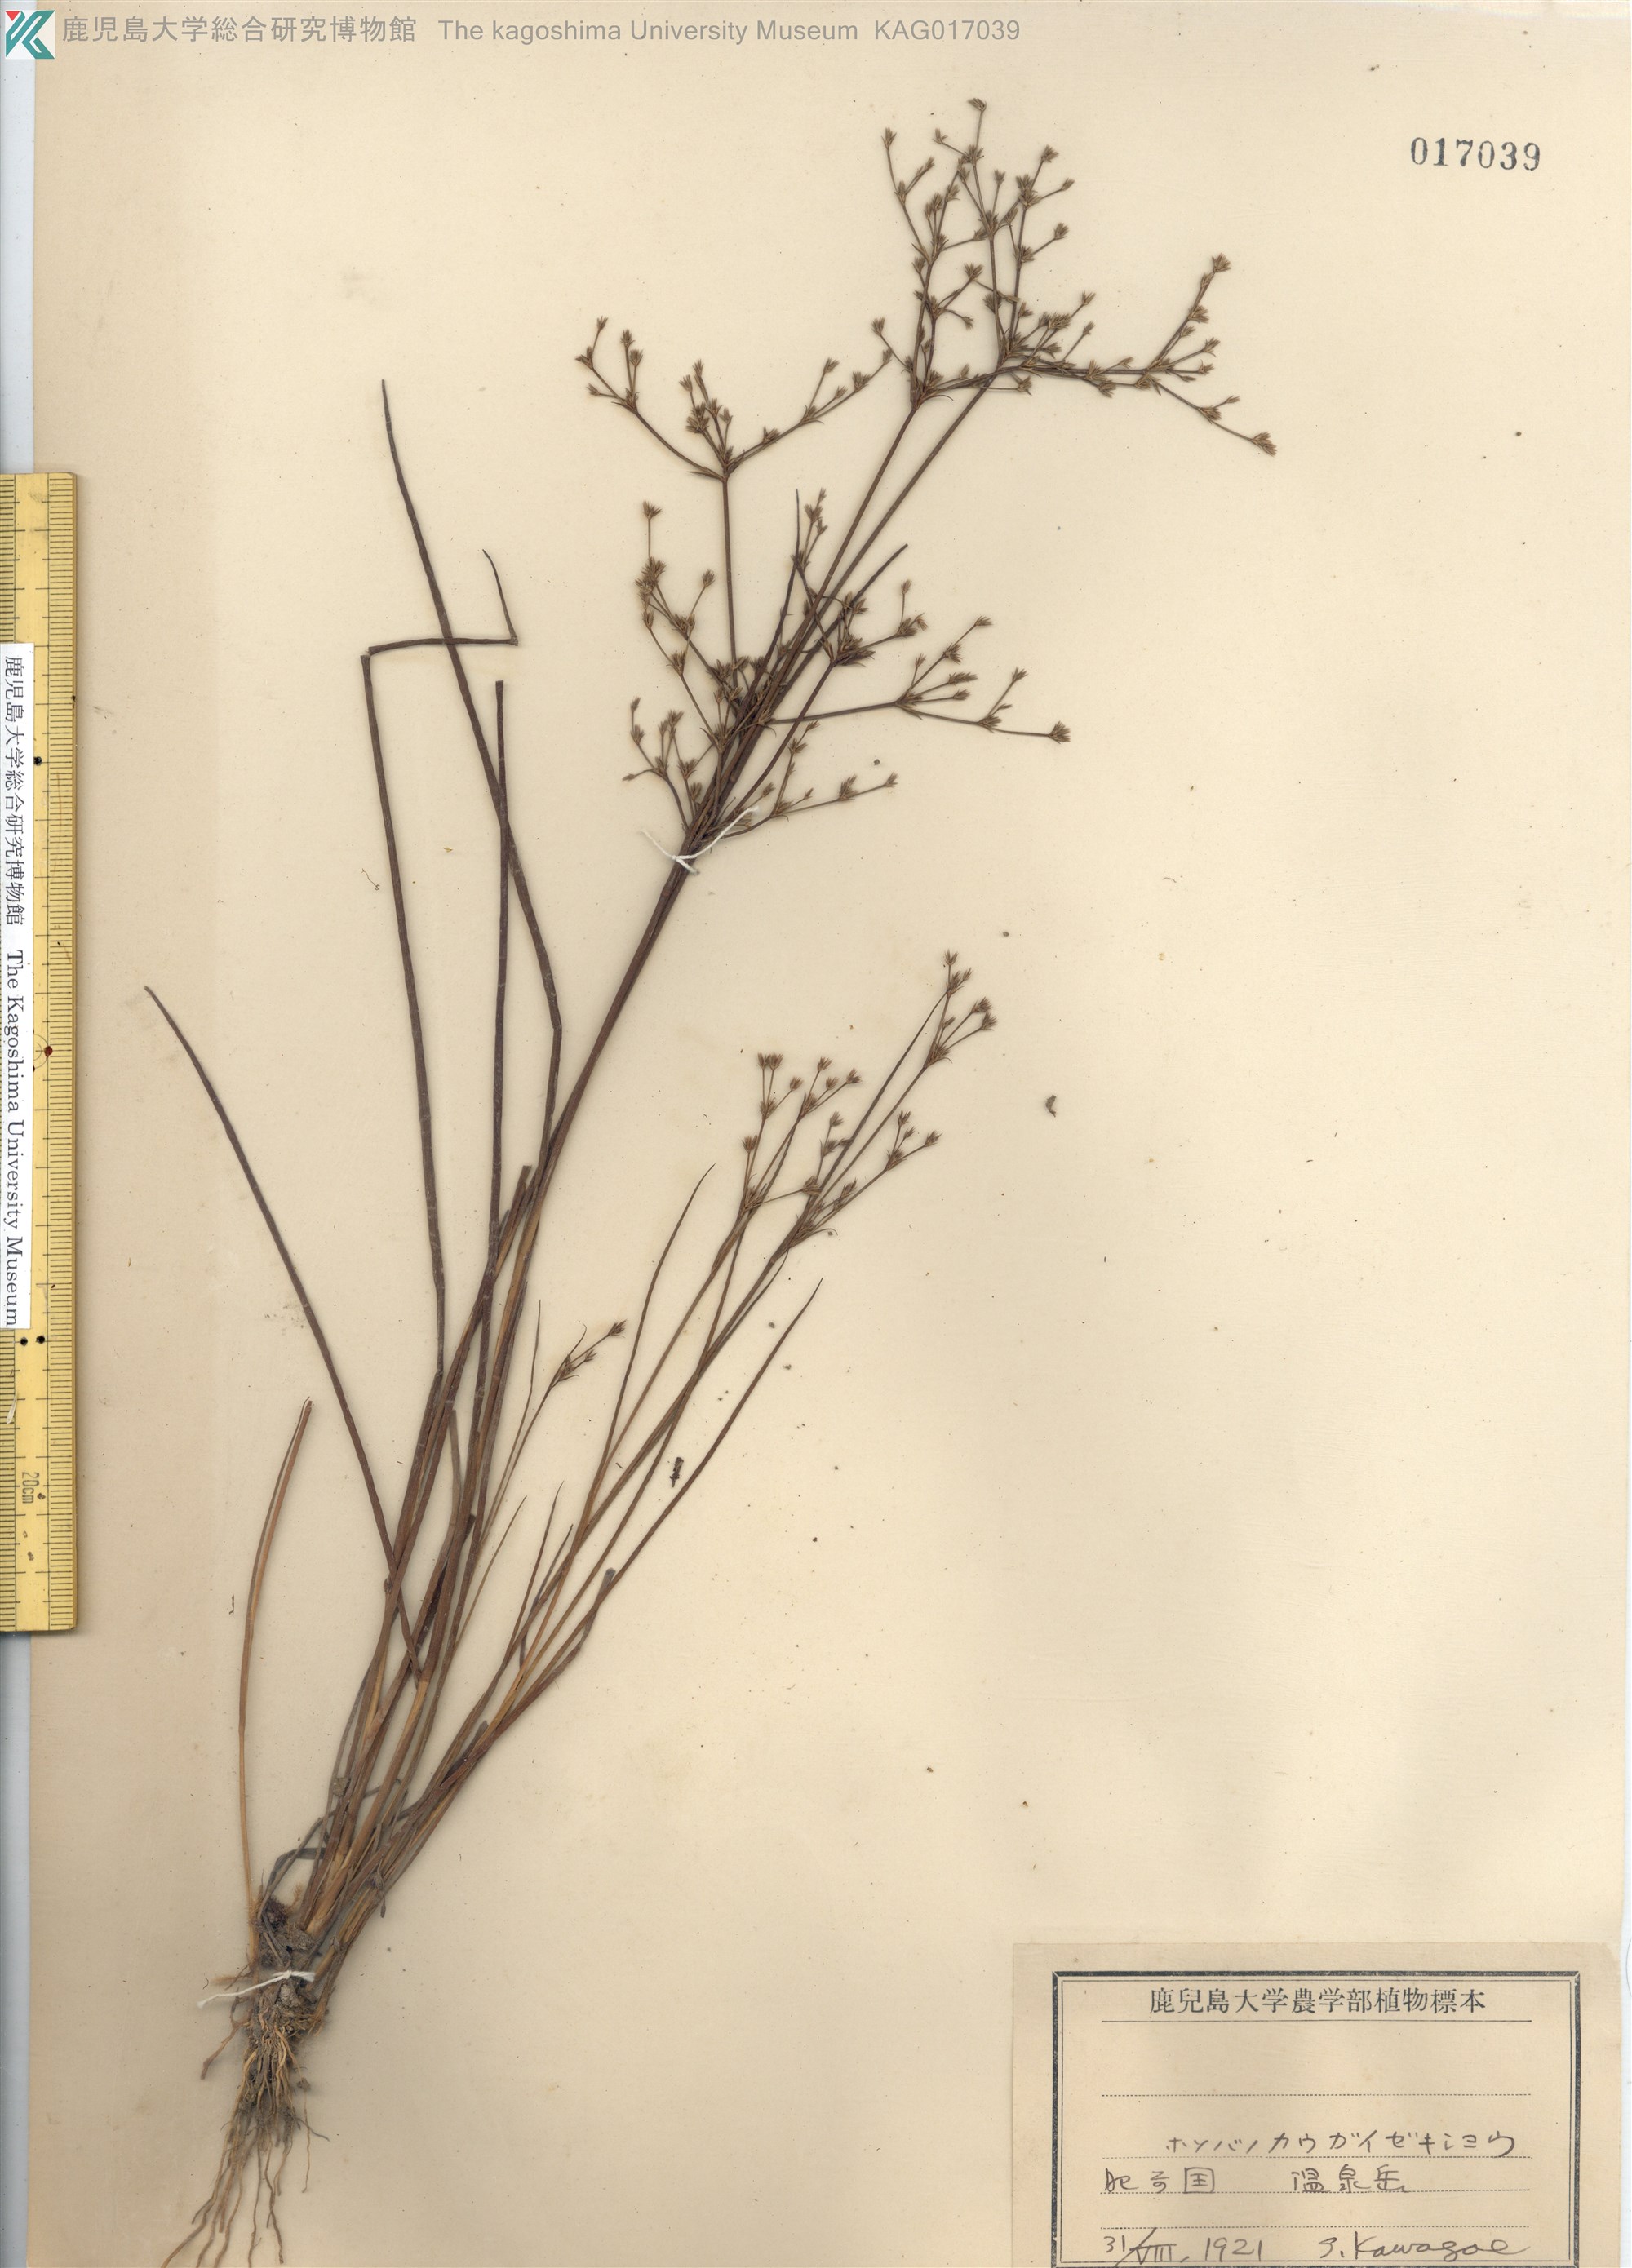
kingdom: Plantae
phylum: Tracheophyta
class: Liliopsida
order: Poales
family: Juncaceae
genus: Juncus
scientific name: Juncus papillosus
